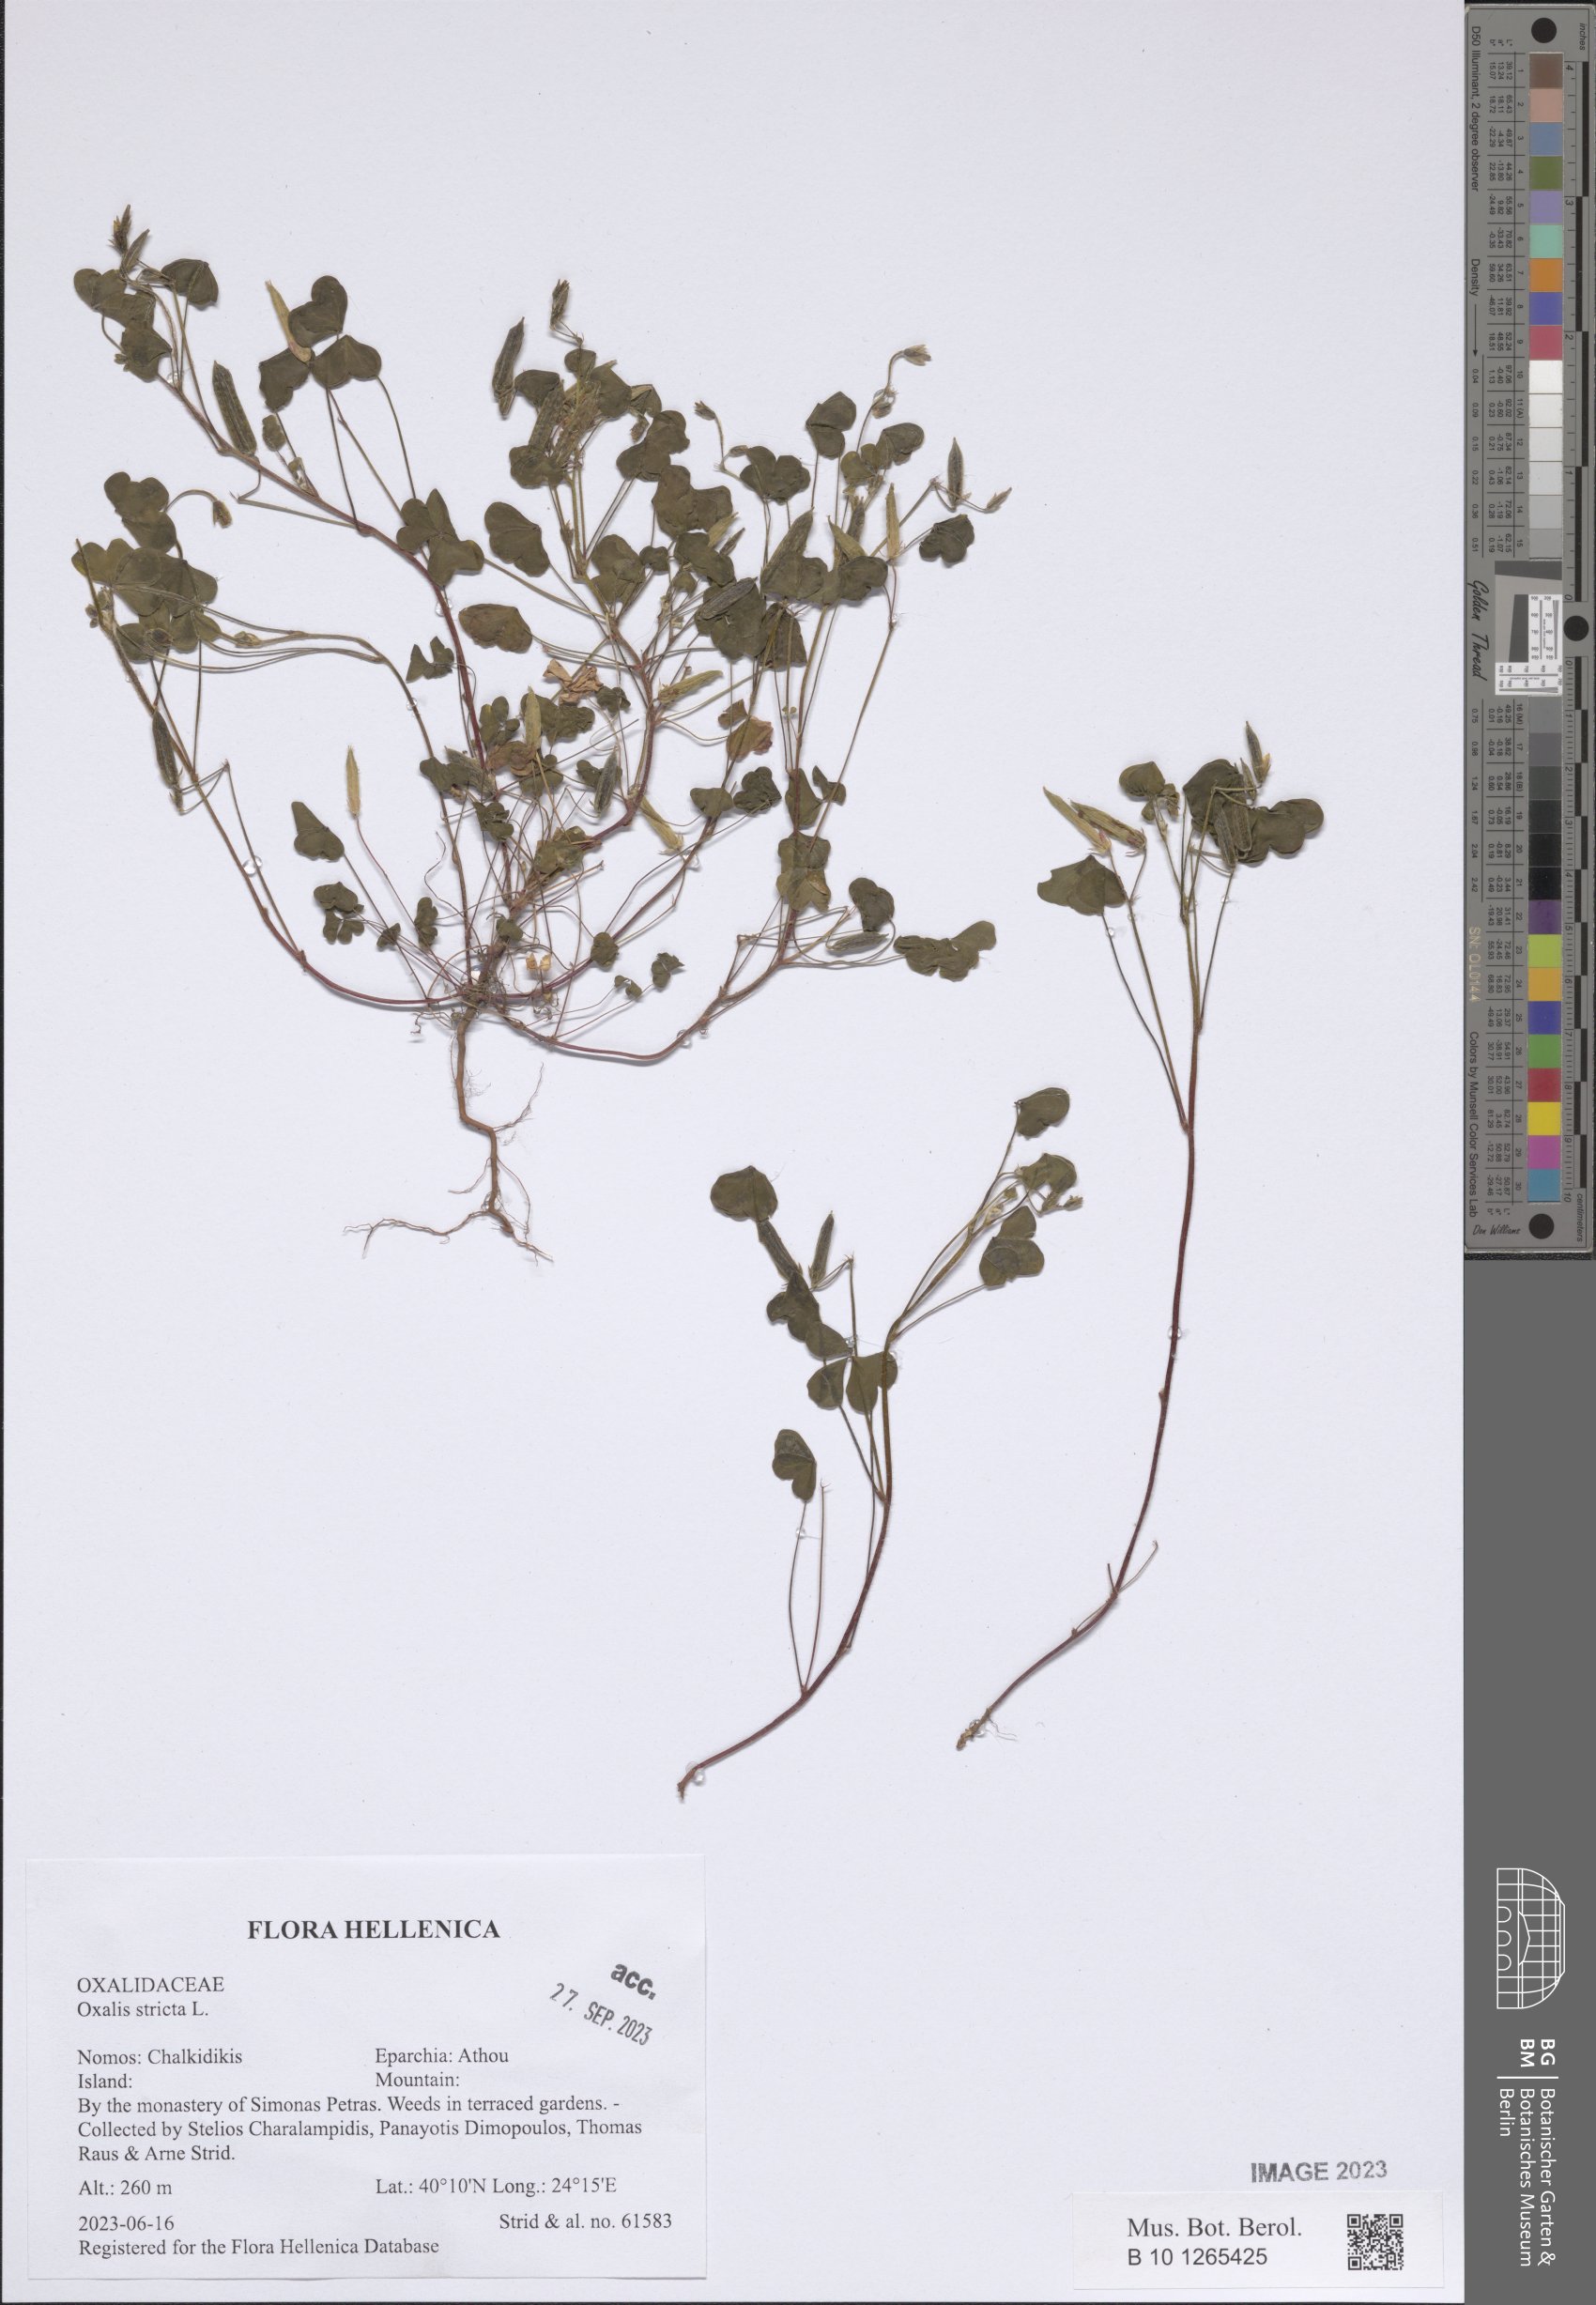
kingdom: Plantae
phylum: Tracheophyta
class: Magnoliopsida
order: Oxalidales
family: Oxalidaceae
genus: Oxalis
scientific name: Oxalis stricta
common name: Upright yellow-sorrel
